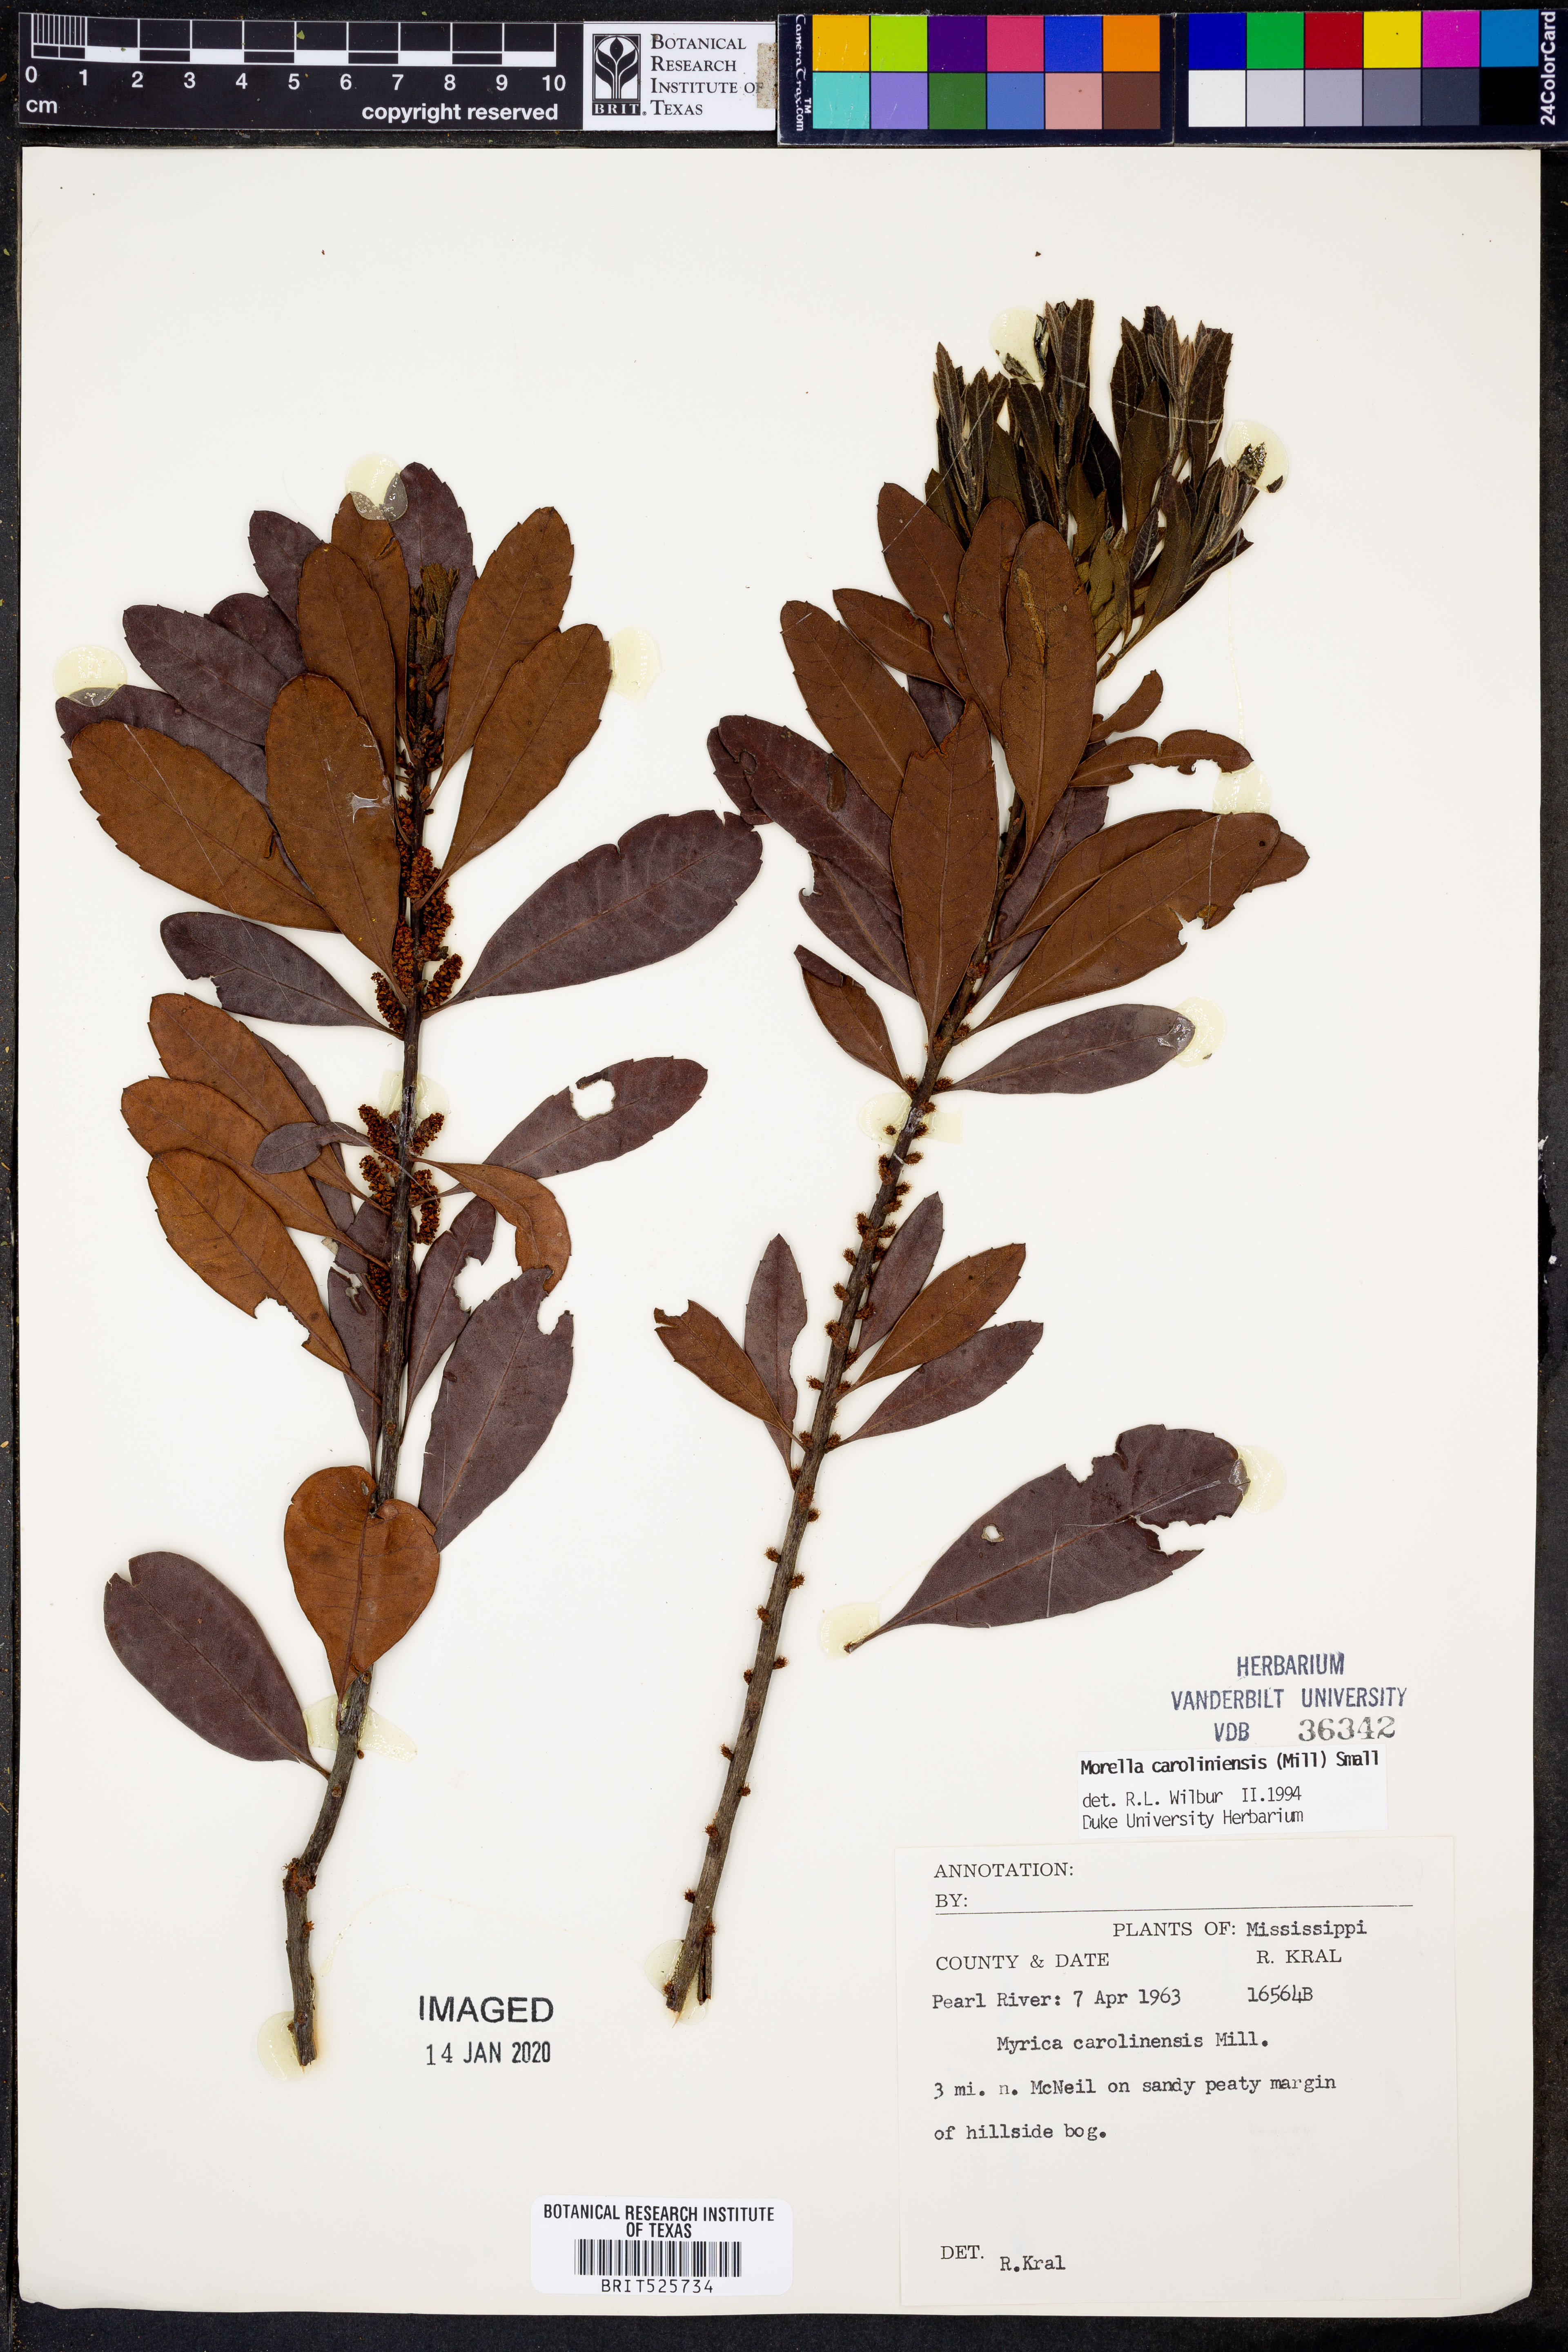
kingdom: Plantae
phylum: Tracheophyta
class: Magnoliopsida
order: Fagales
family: Myricaceae
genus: Morella
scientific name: Morella caroliniensis
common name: Evergreen bayberry
